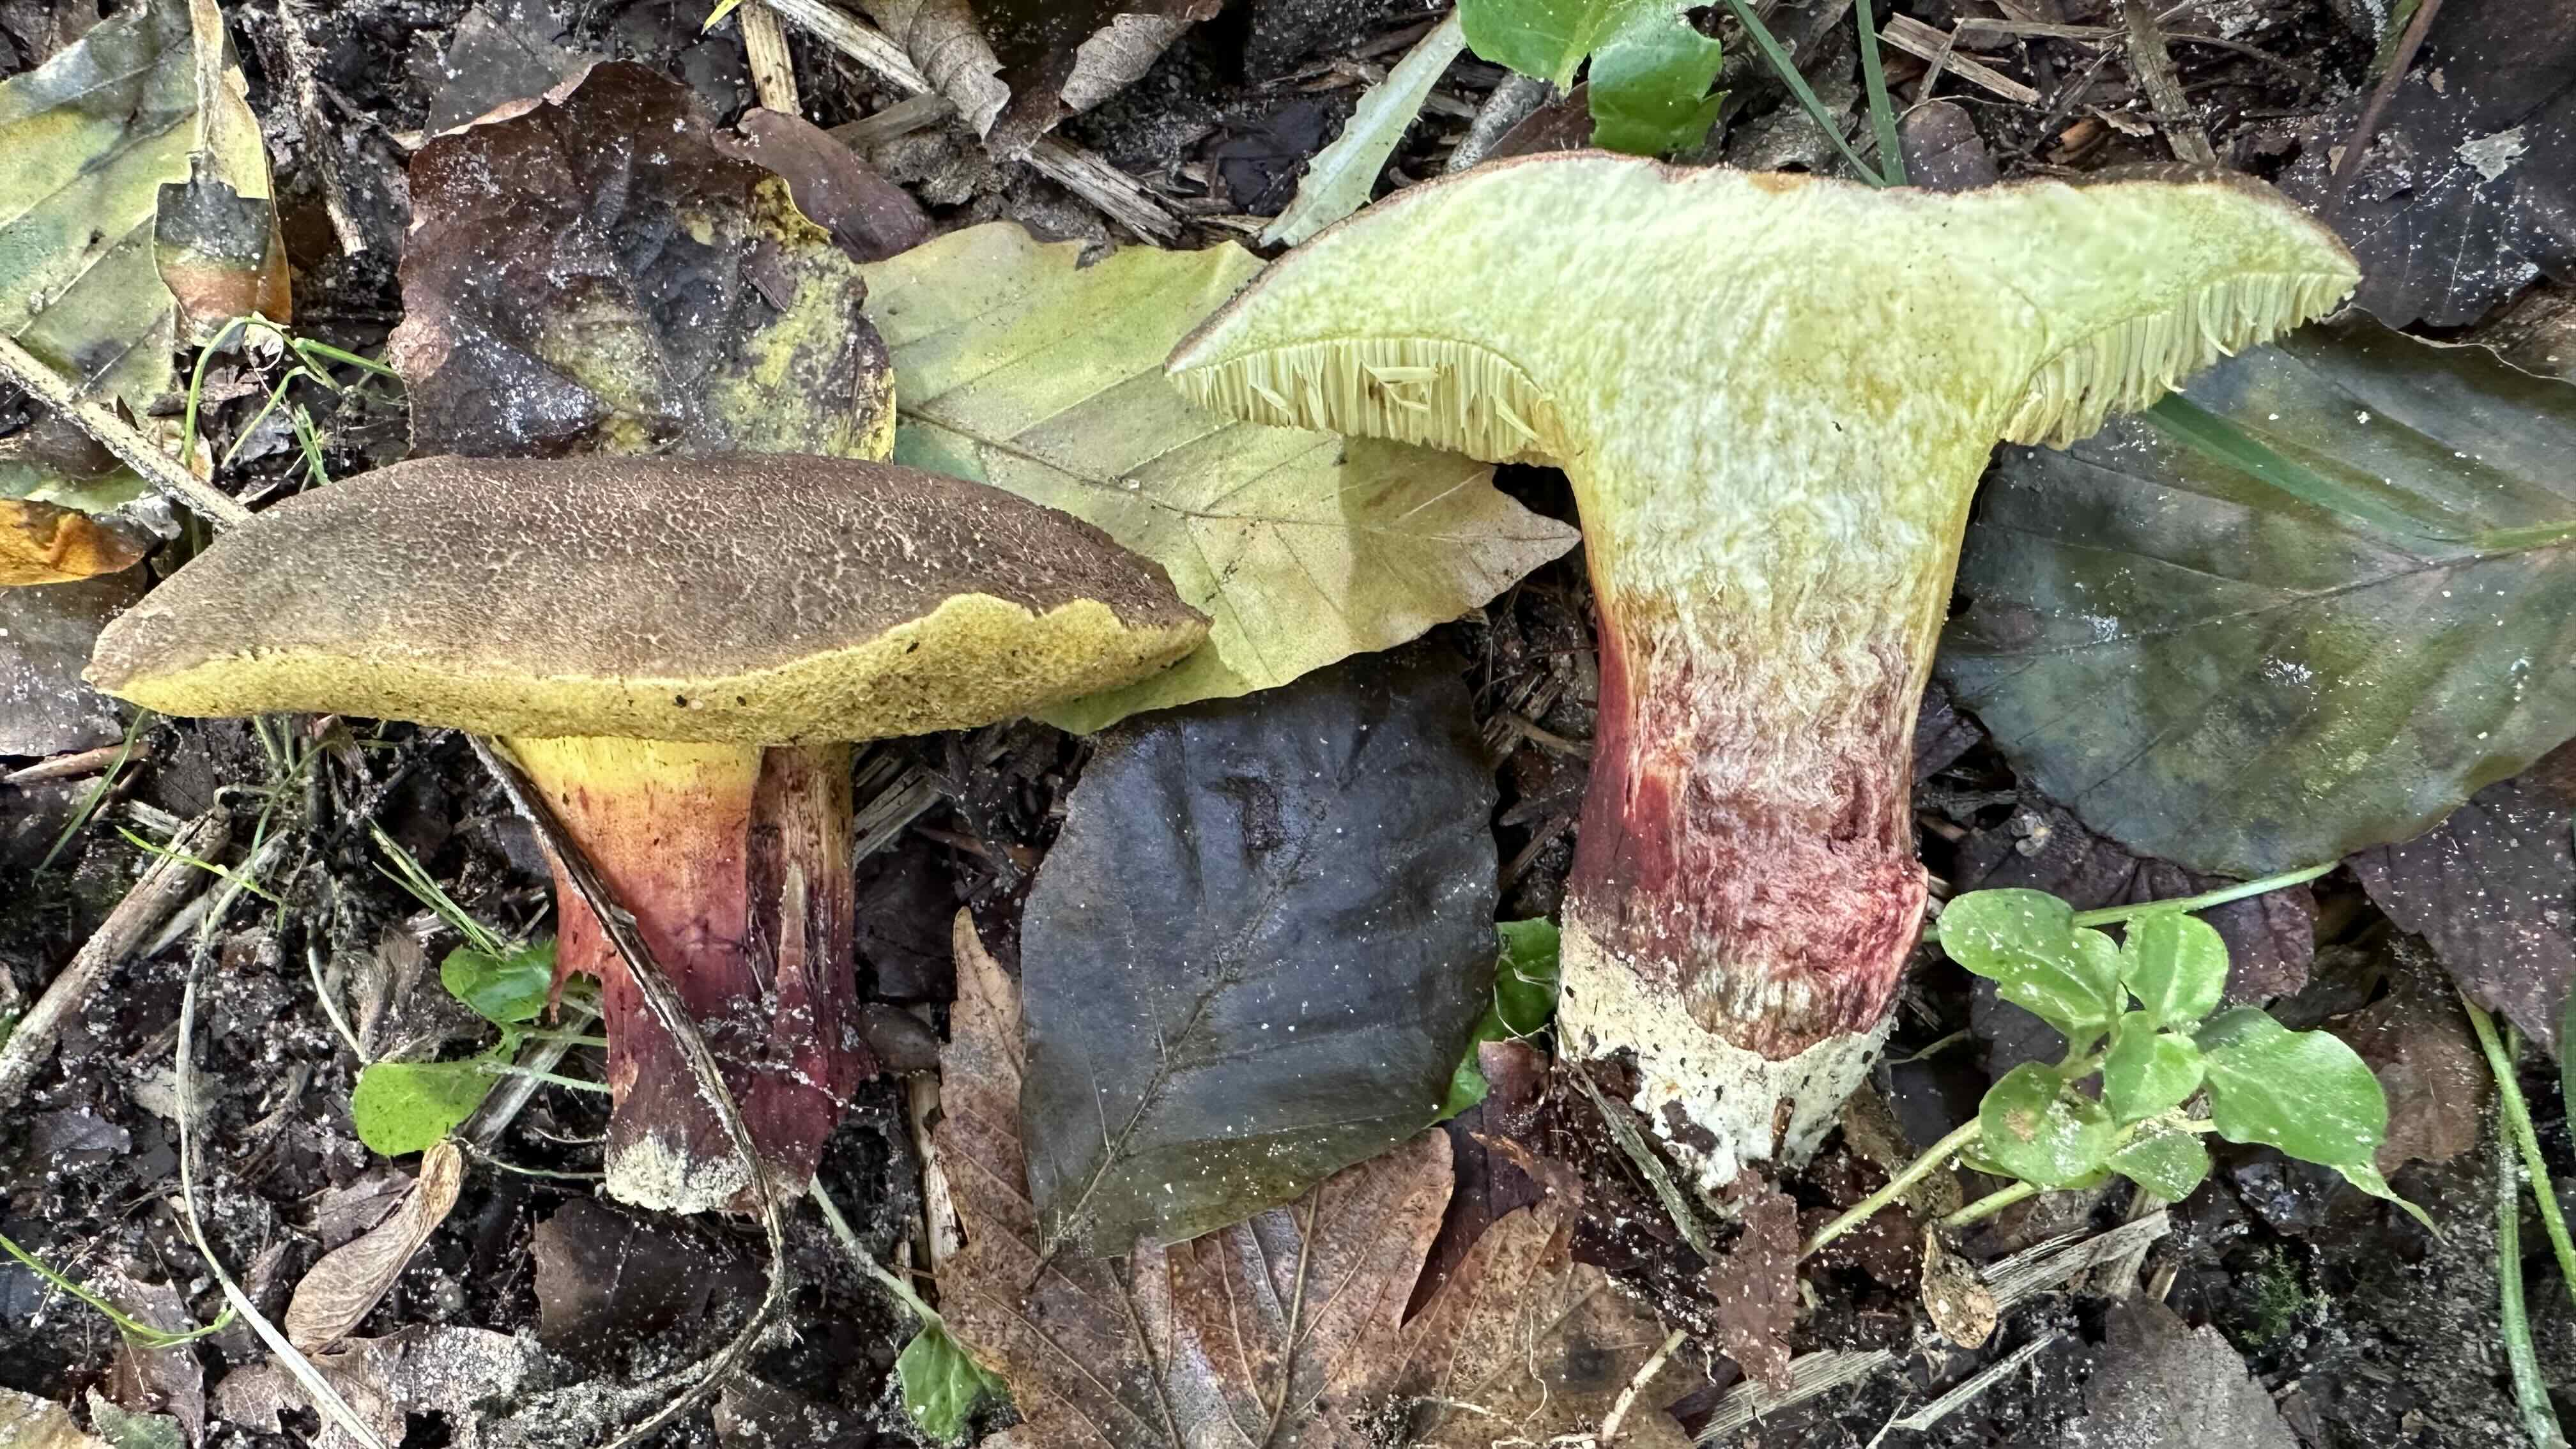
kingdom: Fungi
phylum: Basidiomycota
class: Agaricomycetes
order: Boletales
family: Boletaceae
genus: Xerocomellus
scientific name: Xerocomellus chrysenteron
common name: rødsprukken rørhat
